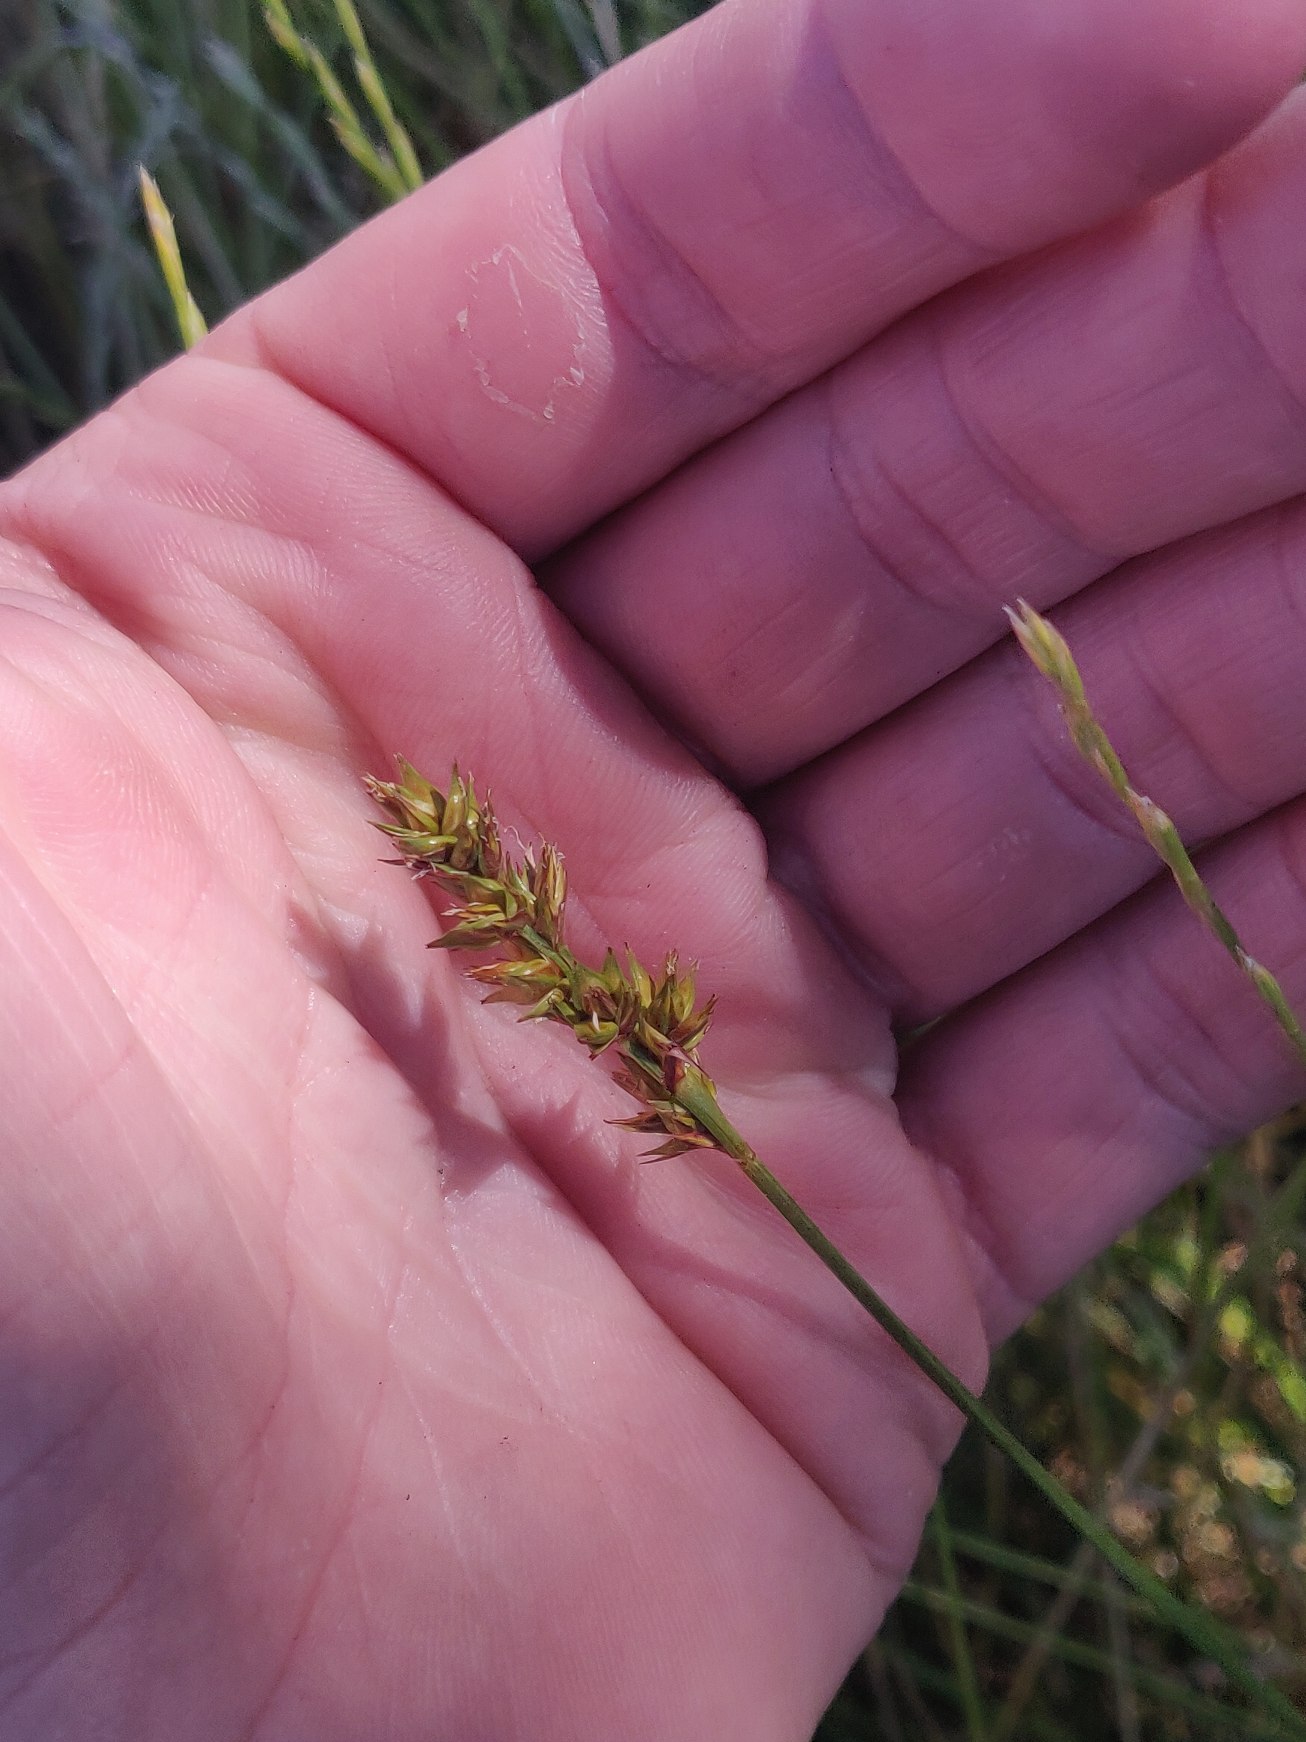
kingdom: Plantae
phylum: Tracheophyta
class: Liliopsida
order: Poales
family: Cyperaceae
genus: Carex
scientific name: Carex spicata
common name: Spidskapslet star
